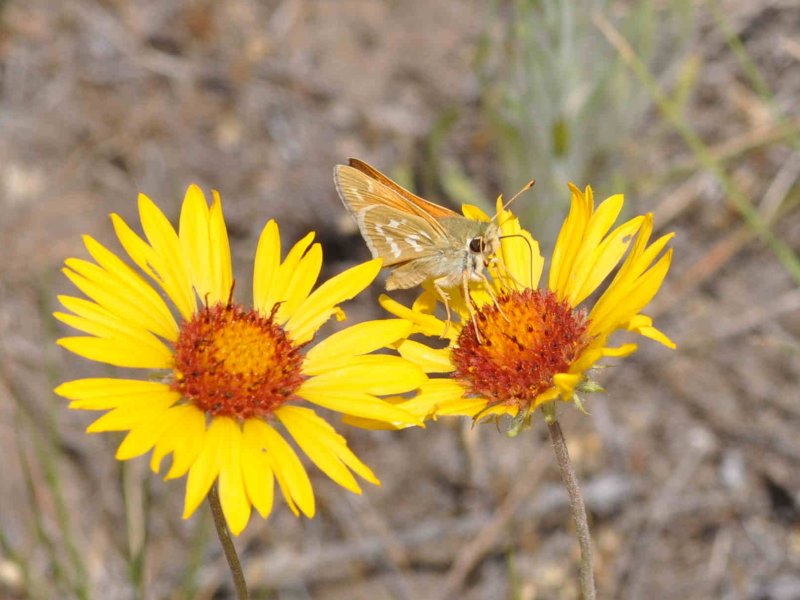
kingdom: Animalia
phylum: Arthropoda
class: Insecta
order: Lepidoptera
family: Hesperiidae
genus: Hesperia
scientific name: Hesperia comma
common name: Western Branded Skipper
